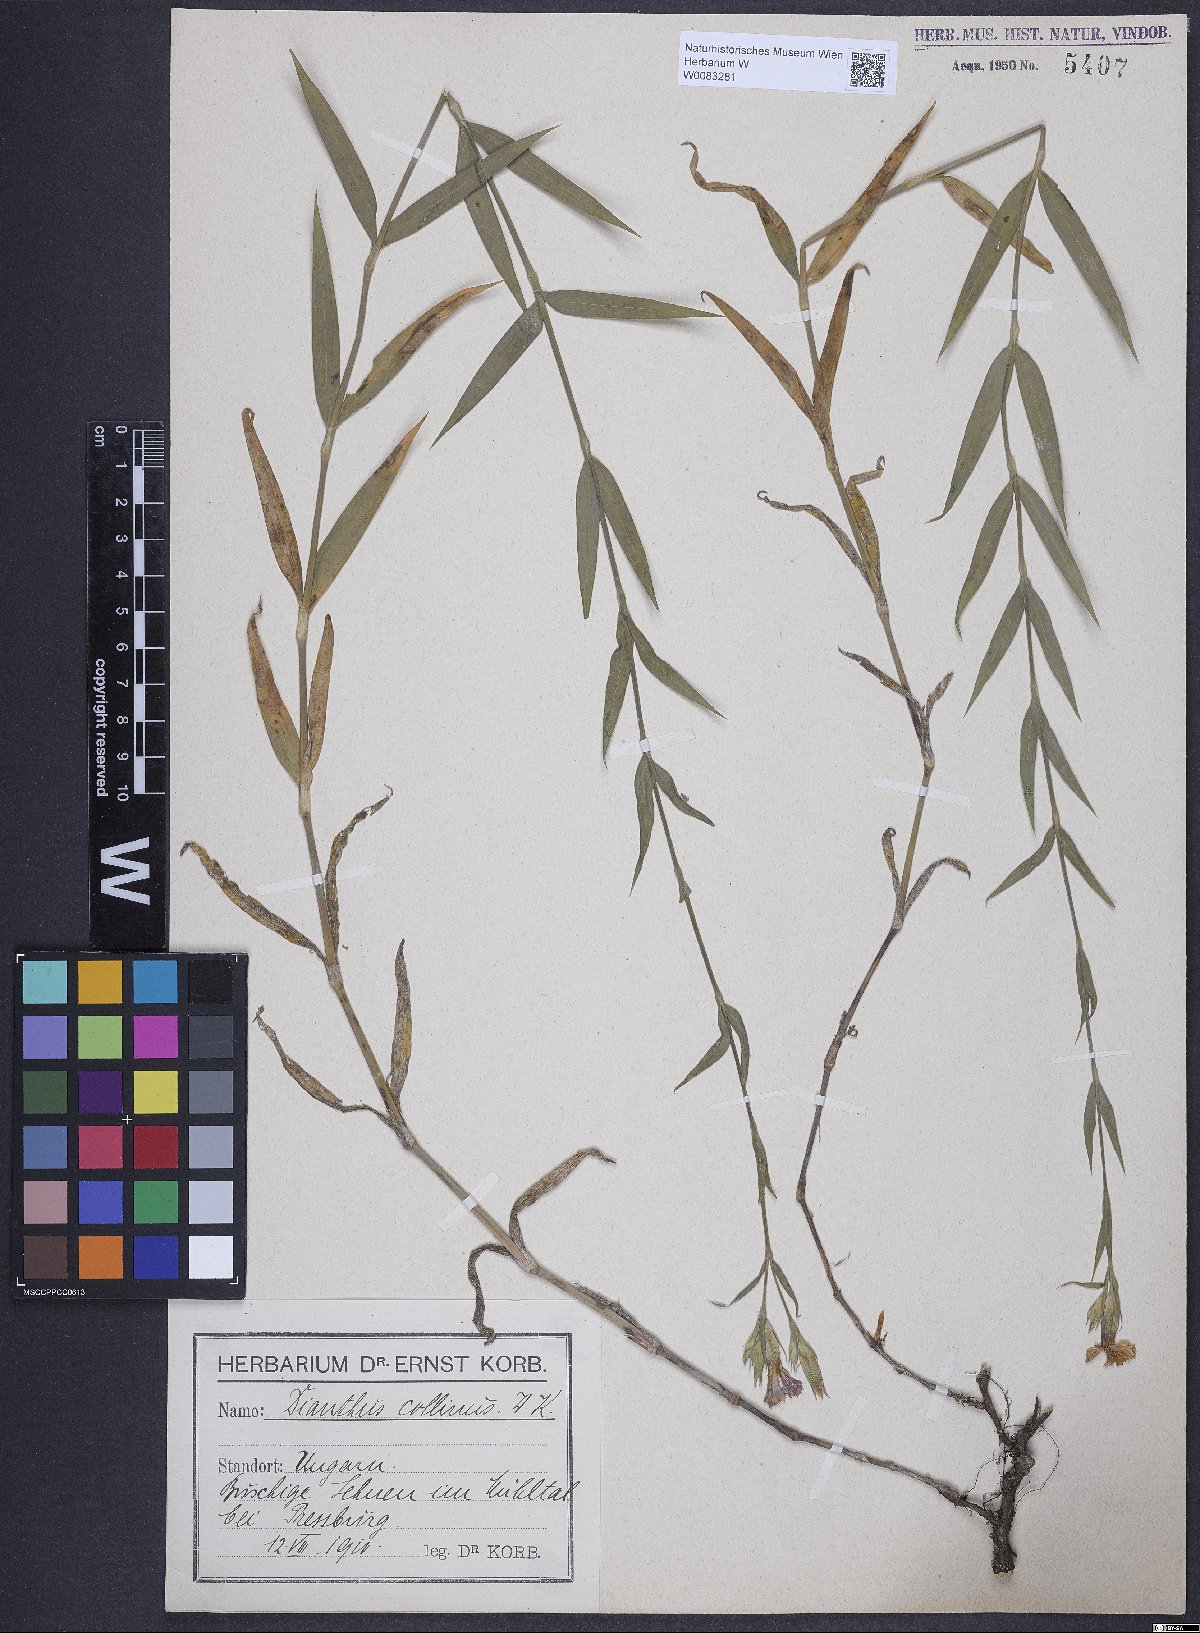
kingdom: Plantae
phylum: Tracheophyta
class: Magnoliopsida
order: Caryophyllales
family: Caryophyllaceae
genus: Dianthus
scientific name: Dianthus collinus
